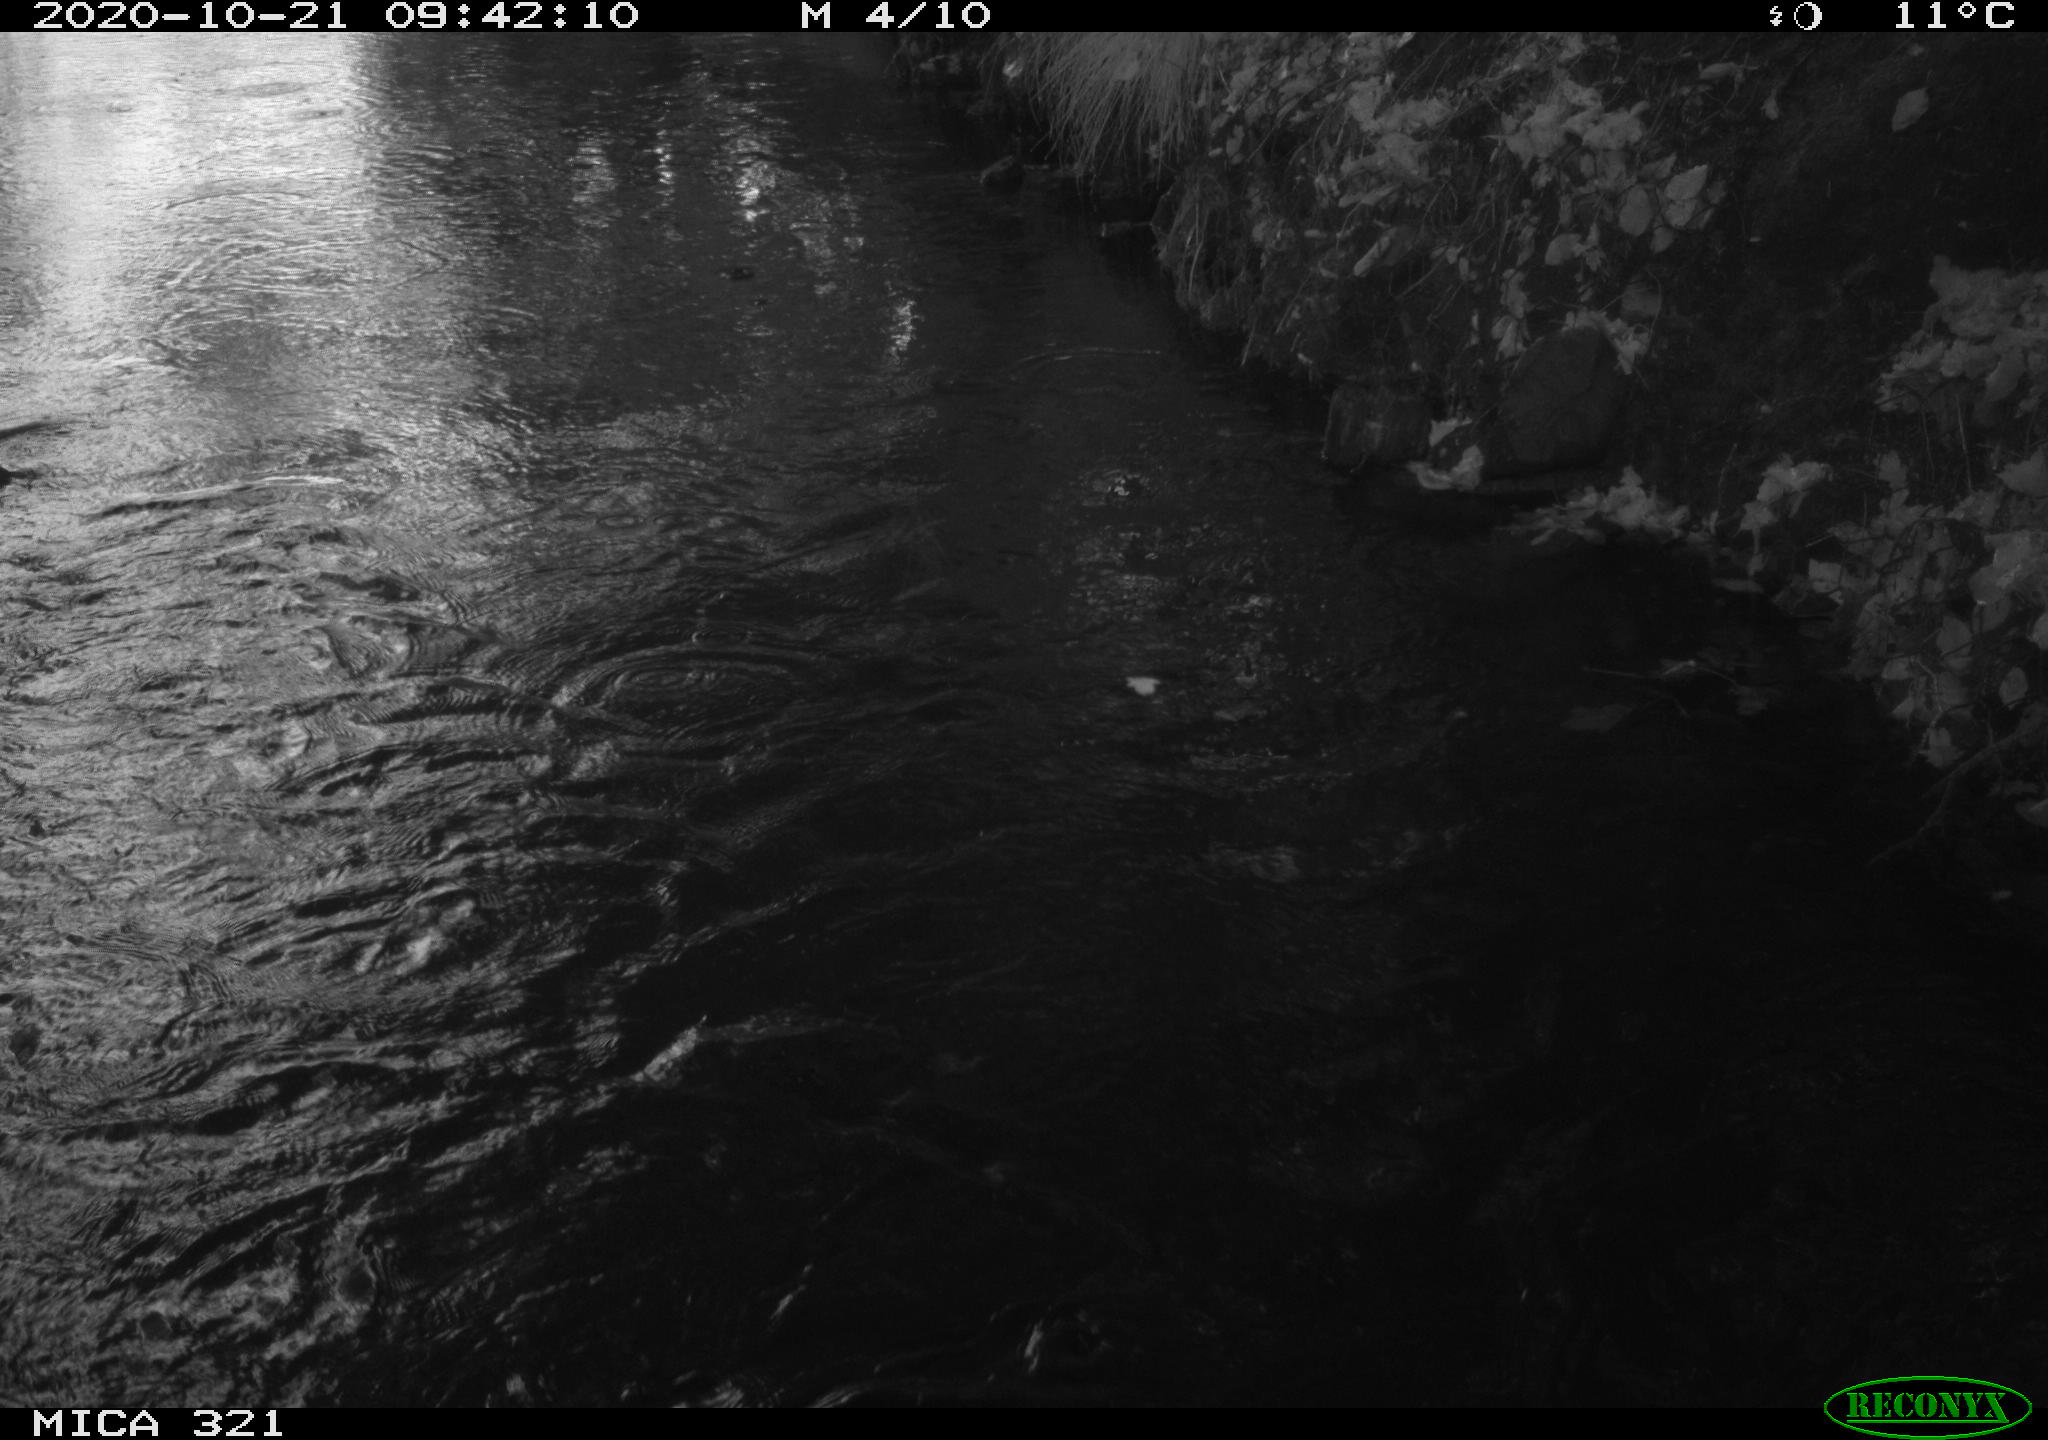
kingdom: Animalia
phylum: Chordata
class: Aves
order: Anseriformes
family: Anatidae
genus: Anas
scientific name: Anas platyrhynchos
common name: Mallard
